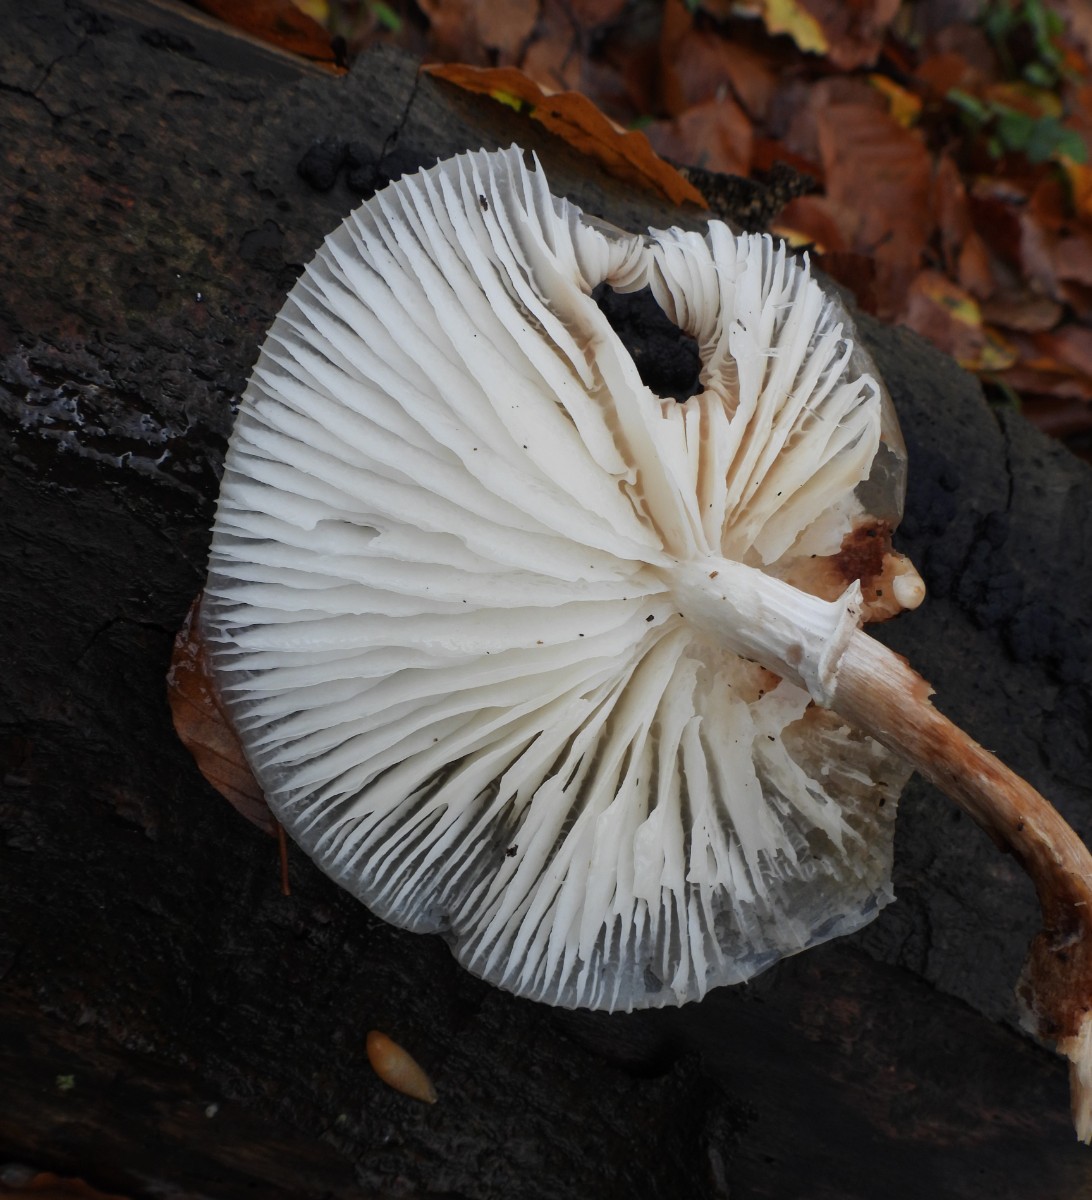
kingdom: Fungi
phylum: Basidiomycota
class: Agaricomycetes
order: Agaricales
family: Physalacriaceae
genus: Mucidula
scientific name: Mucidula mucida
